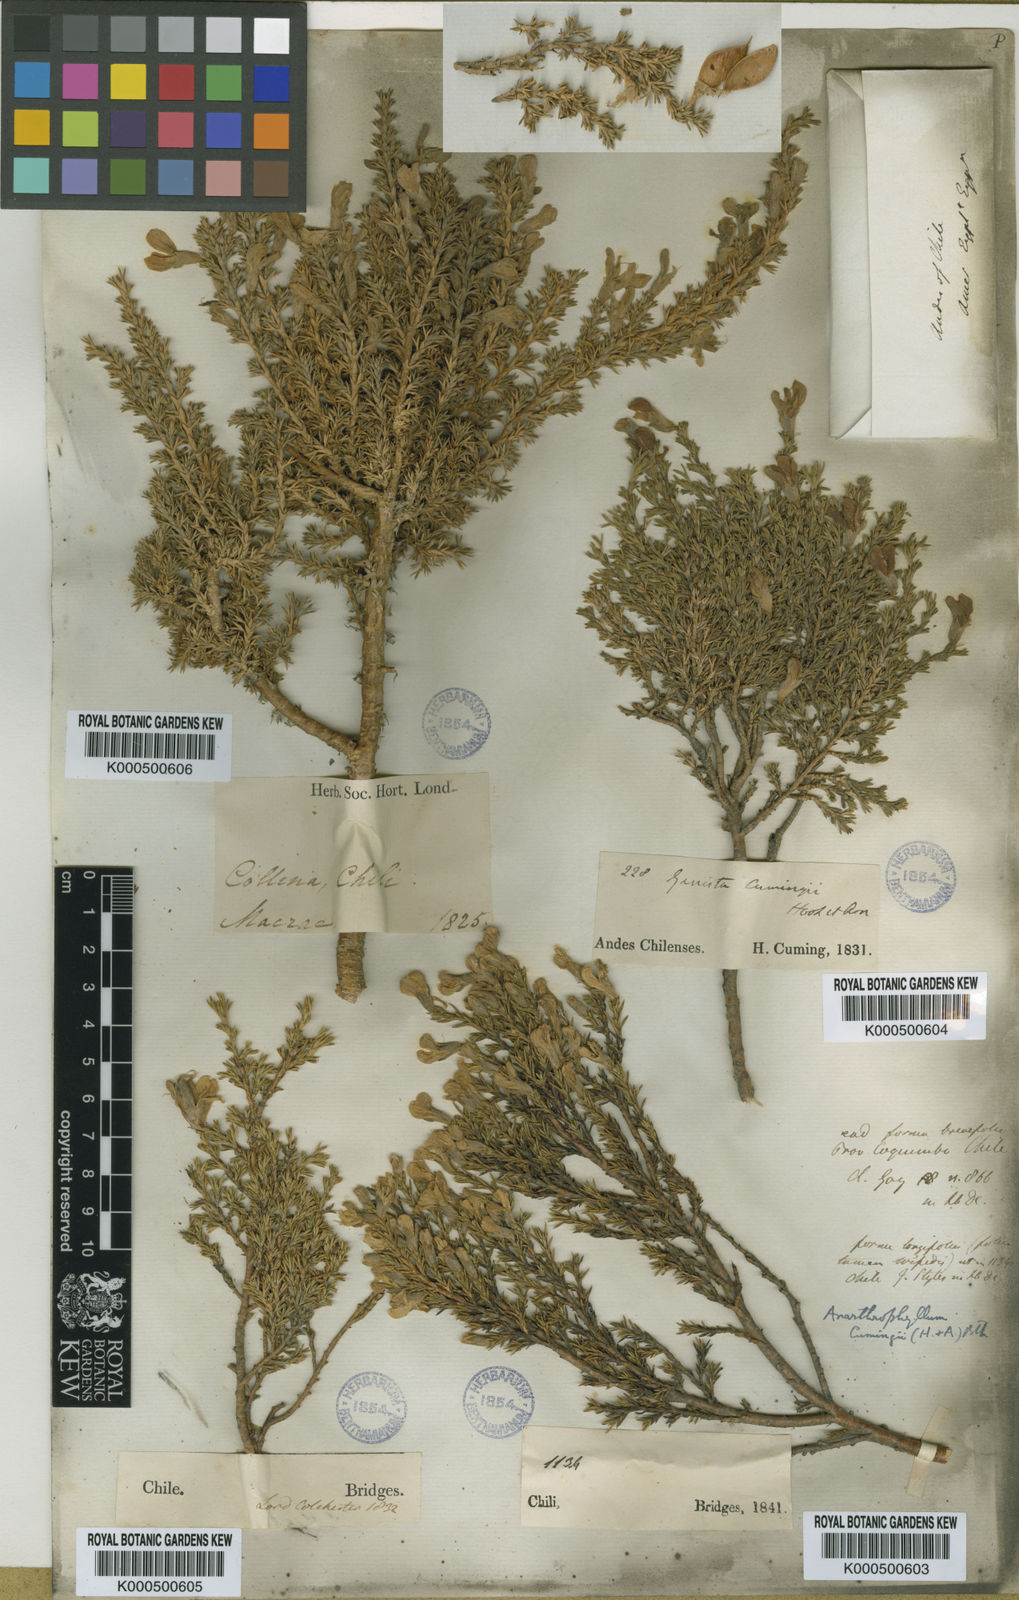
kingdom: Plantae
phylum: Tracheophyta
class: Magnoliopsida
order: Fabales
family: Fabaceae
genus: Anarthrophyllum
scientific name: Anarthrophyllum cumingii
